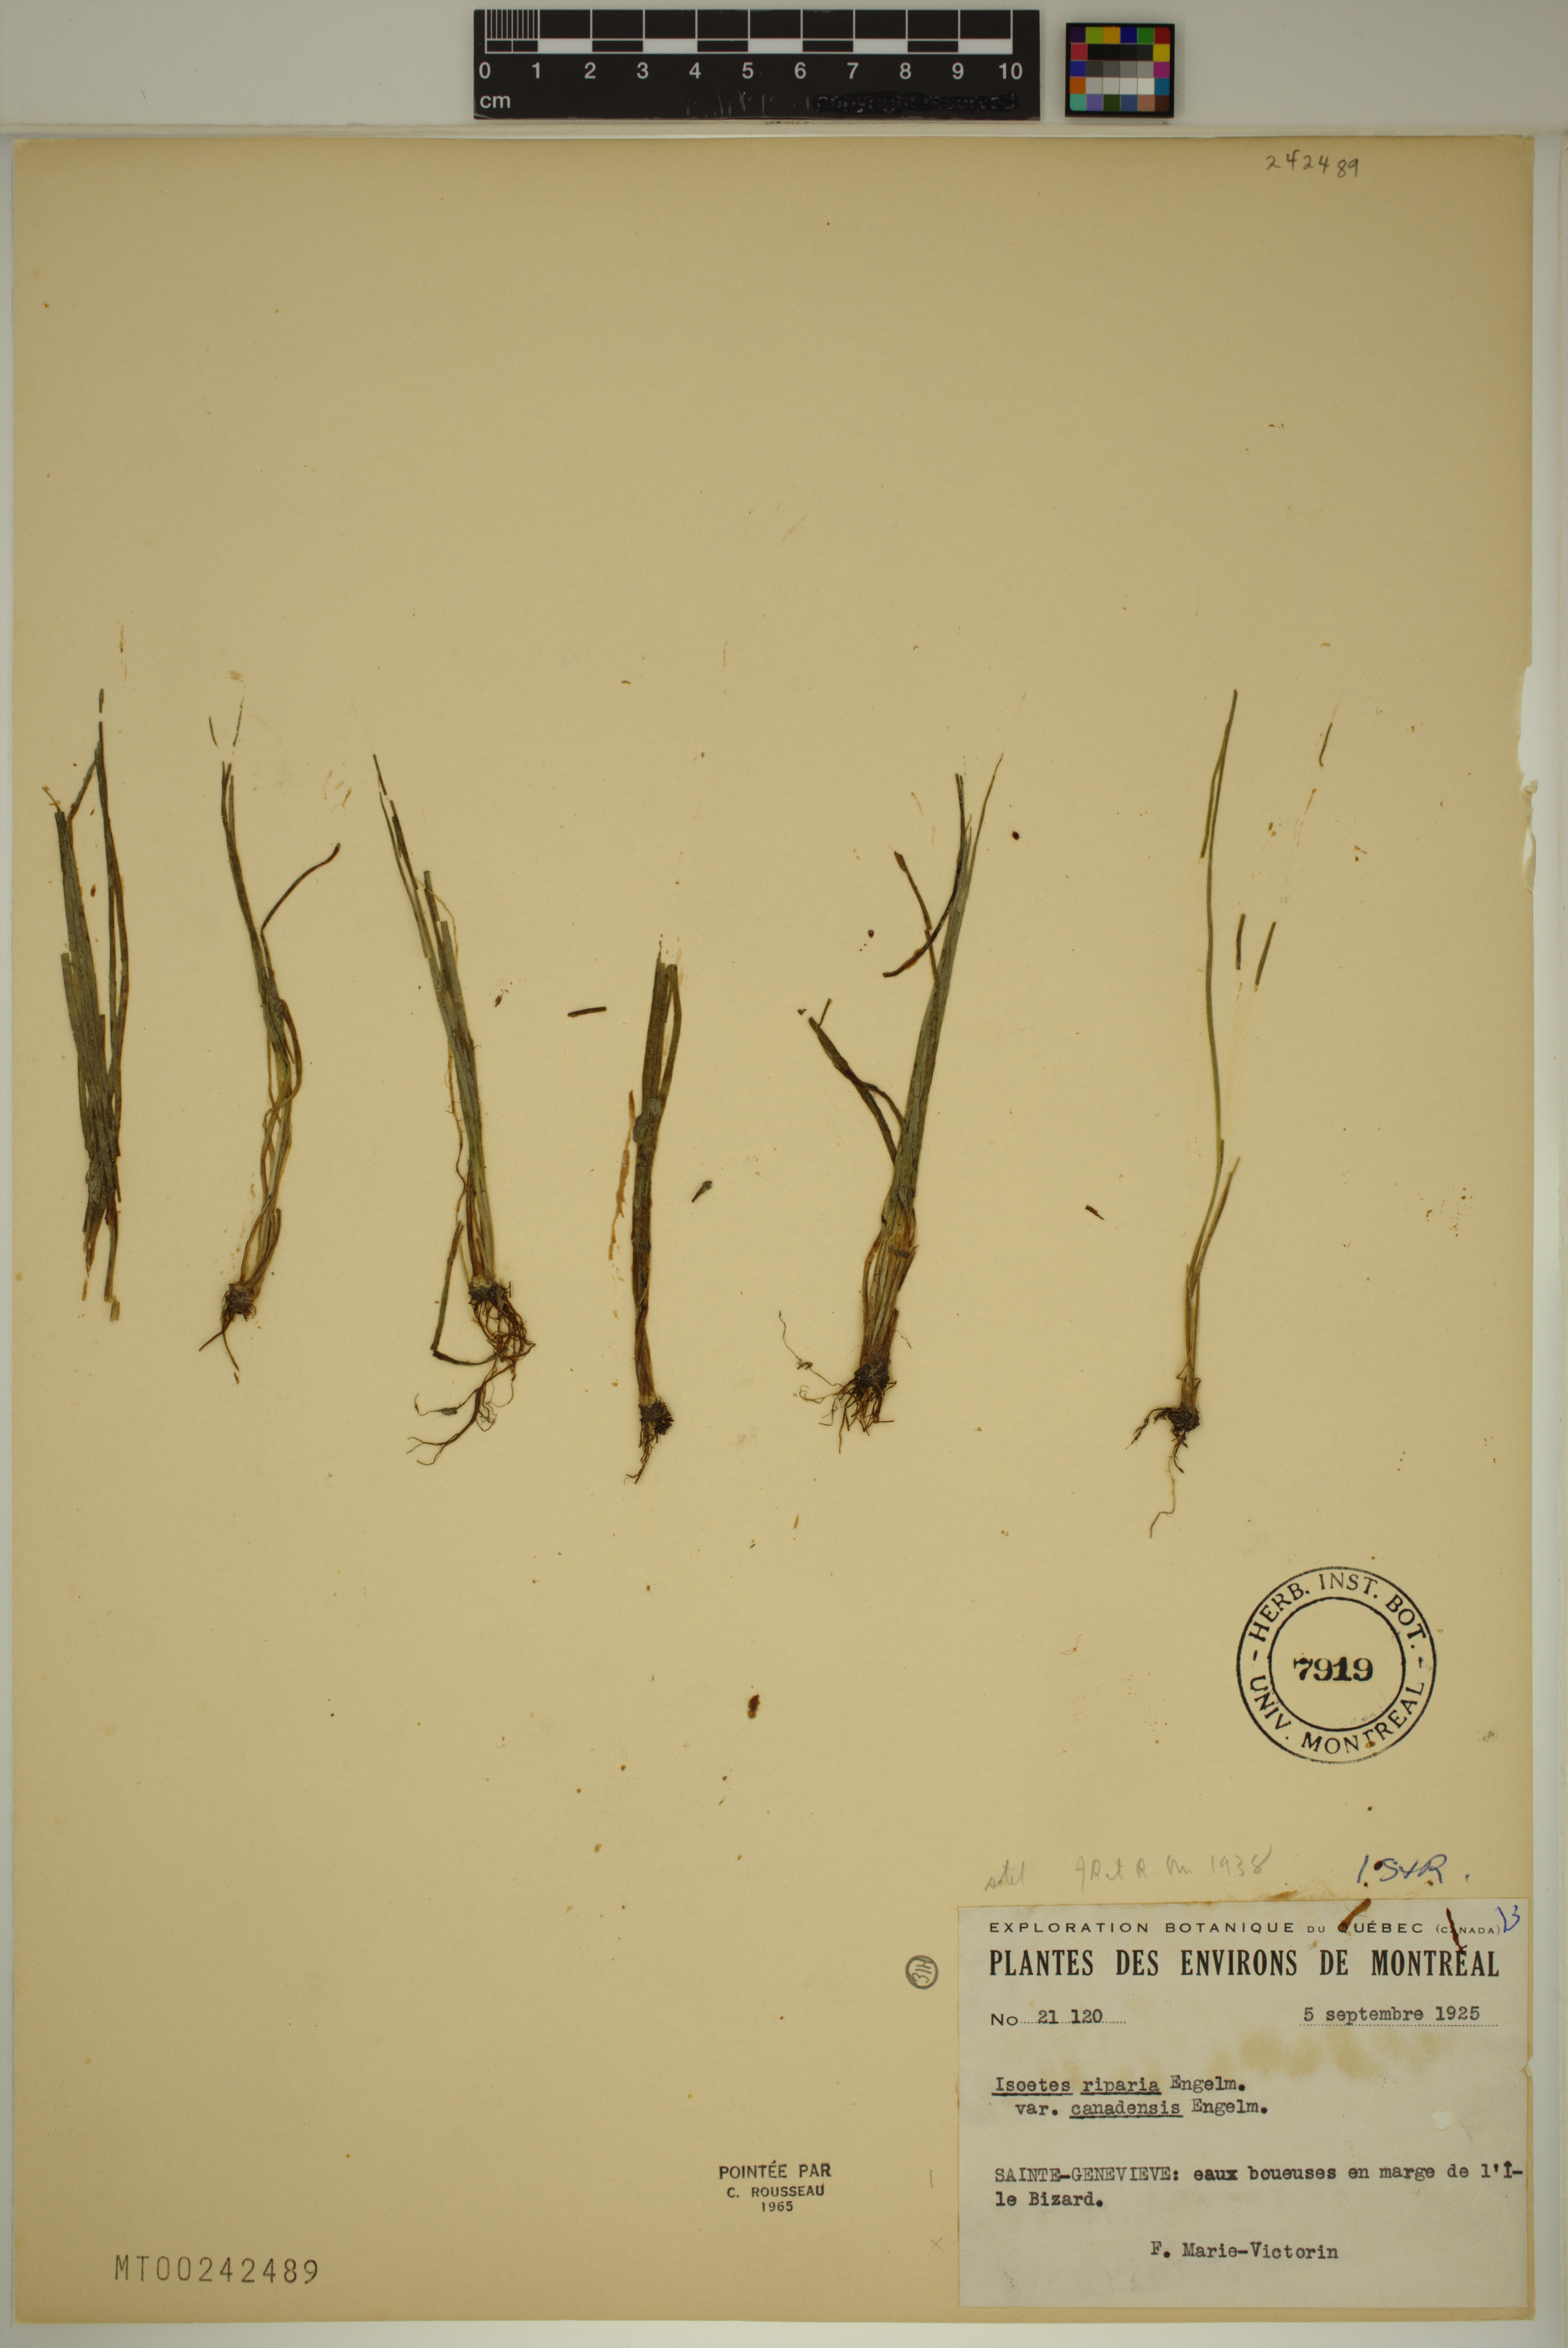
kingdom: Plantae
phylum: Tracheophyta
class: Lycopodiopsida
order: Isoetales
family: Isoetaceae
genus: Isoetes
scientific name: Isoetes septentrionalis
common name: Northern quillwort
